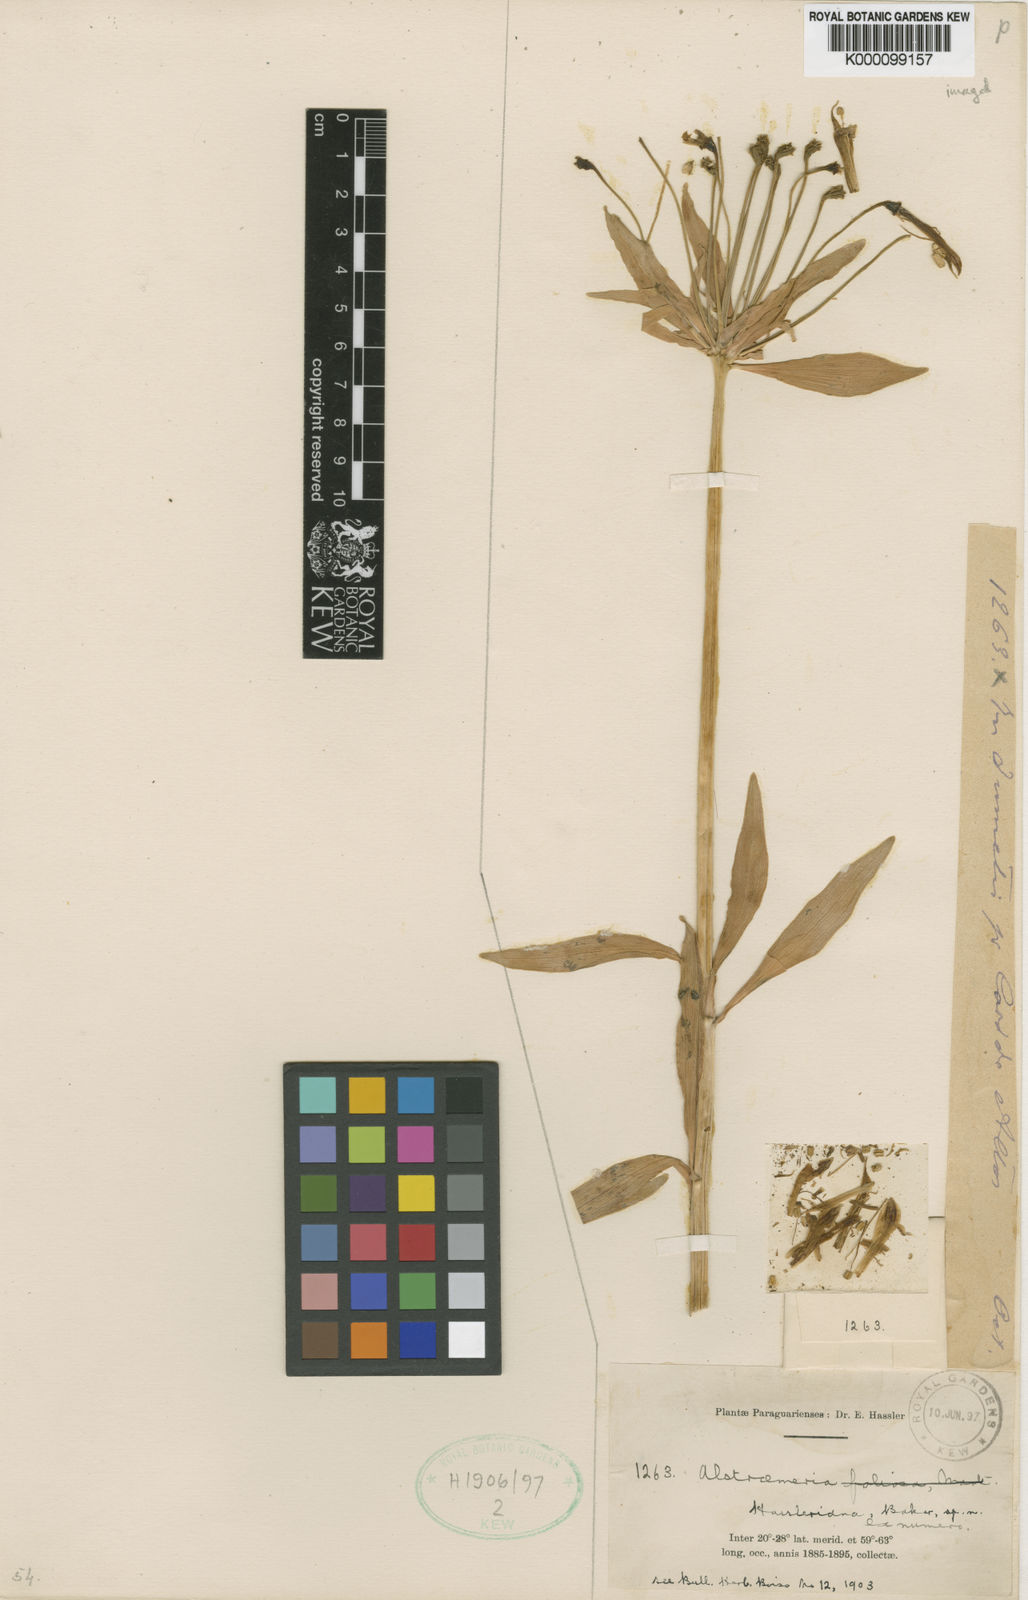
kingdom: Plantae
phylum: Tracheophyta
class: Liliopsida
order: Liliales
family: Alstroemeriaceae
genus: Alstroemeria
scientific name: Alstroemeria psittacina
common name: Peruvian-lily
